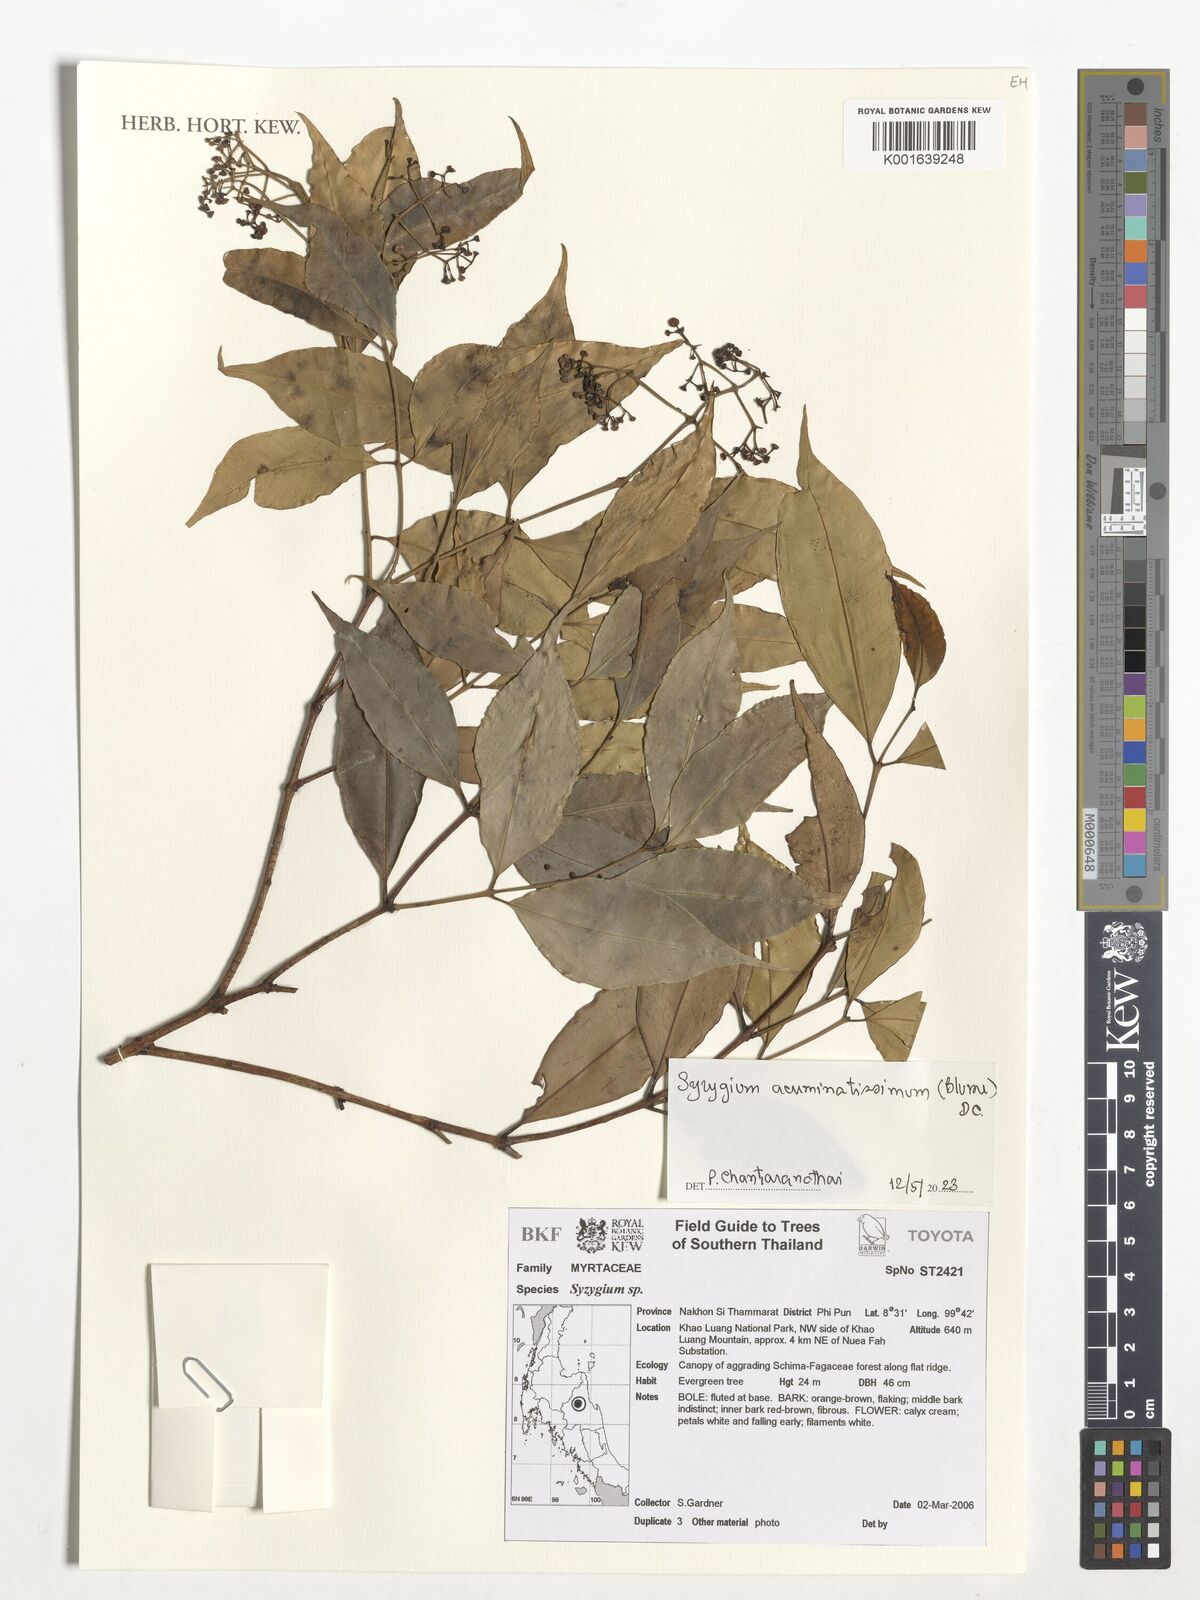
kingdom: Plantae
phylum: Tracheophyta
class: Magnoliopsida
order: Myrtales
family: Myrtaceae
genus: Syzygium
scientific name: Syzygium acuminatissimum
